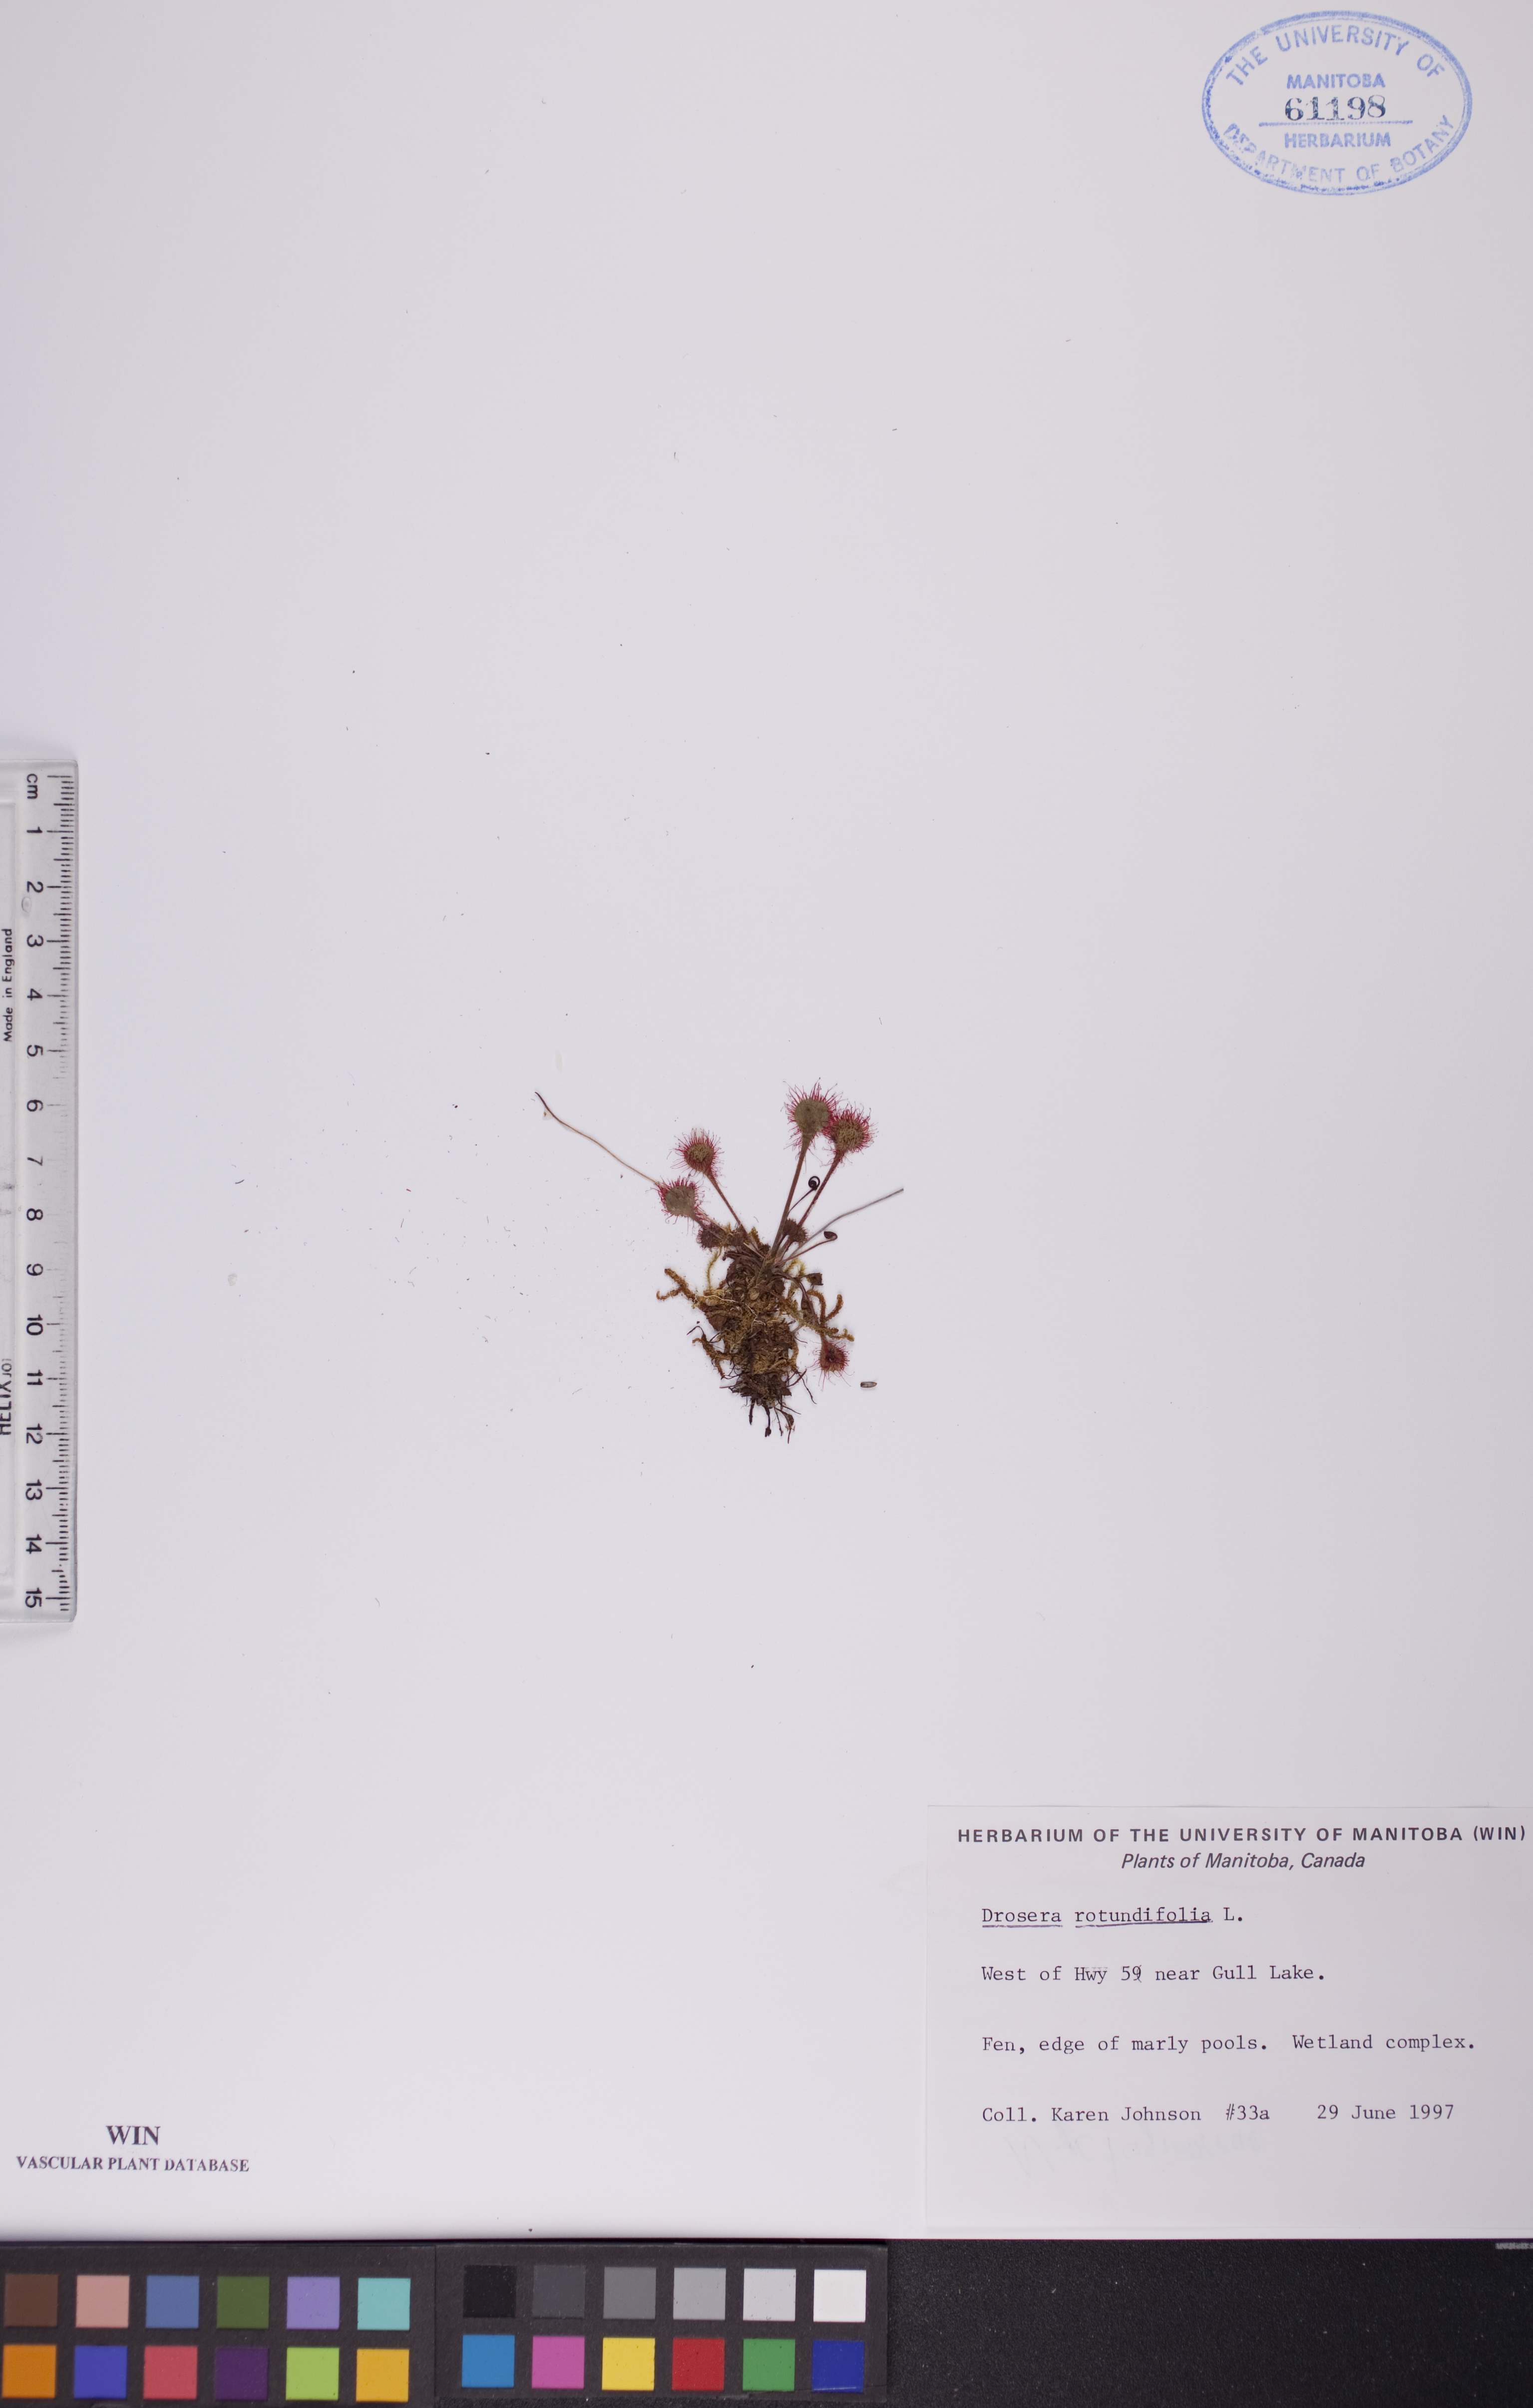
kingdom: Plantae
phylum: Tracheophyta
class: Magnoliopsida
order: Caryophyllales
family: Droseraceae
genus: Drosera
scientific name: Drosera rotundifolia
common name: Round-leaved sundew
